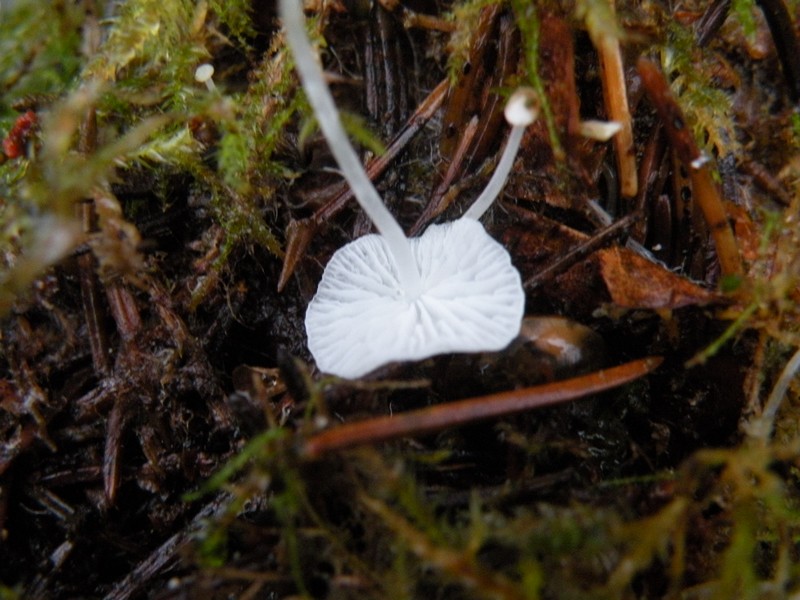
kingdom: Fungi
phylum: Basidiomycota
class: Agaricomycetes
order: Agaricales
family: Mycenaceae
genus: Hemimycena
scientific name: Hemimycena lactea
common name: mælkehvid huesvamp
